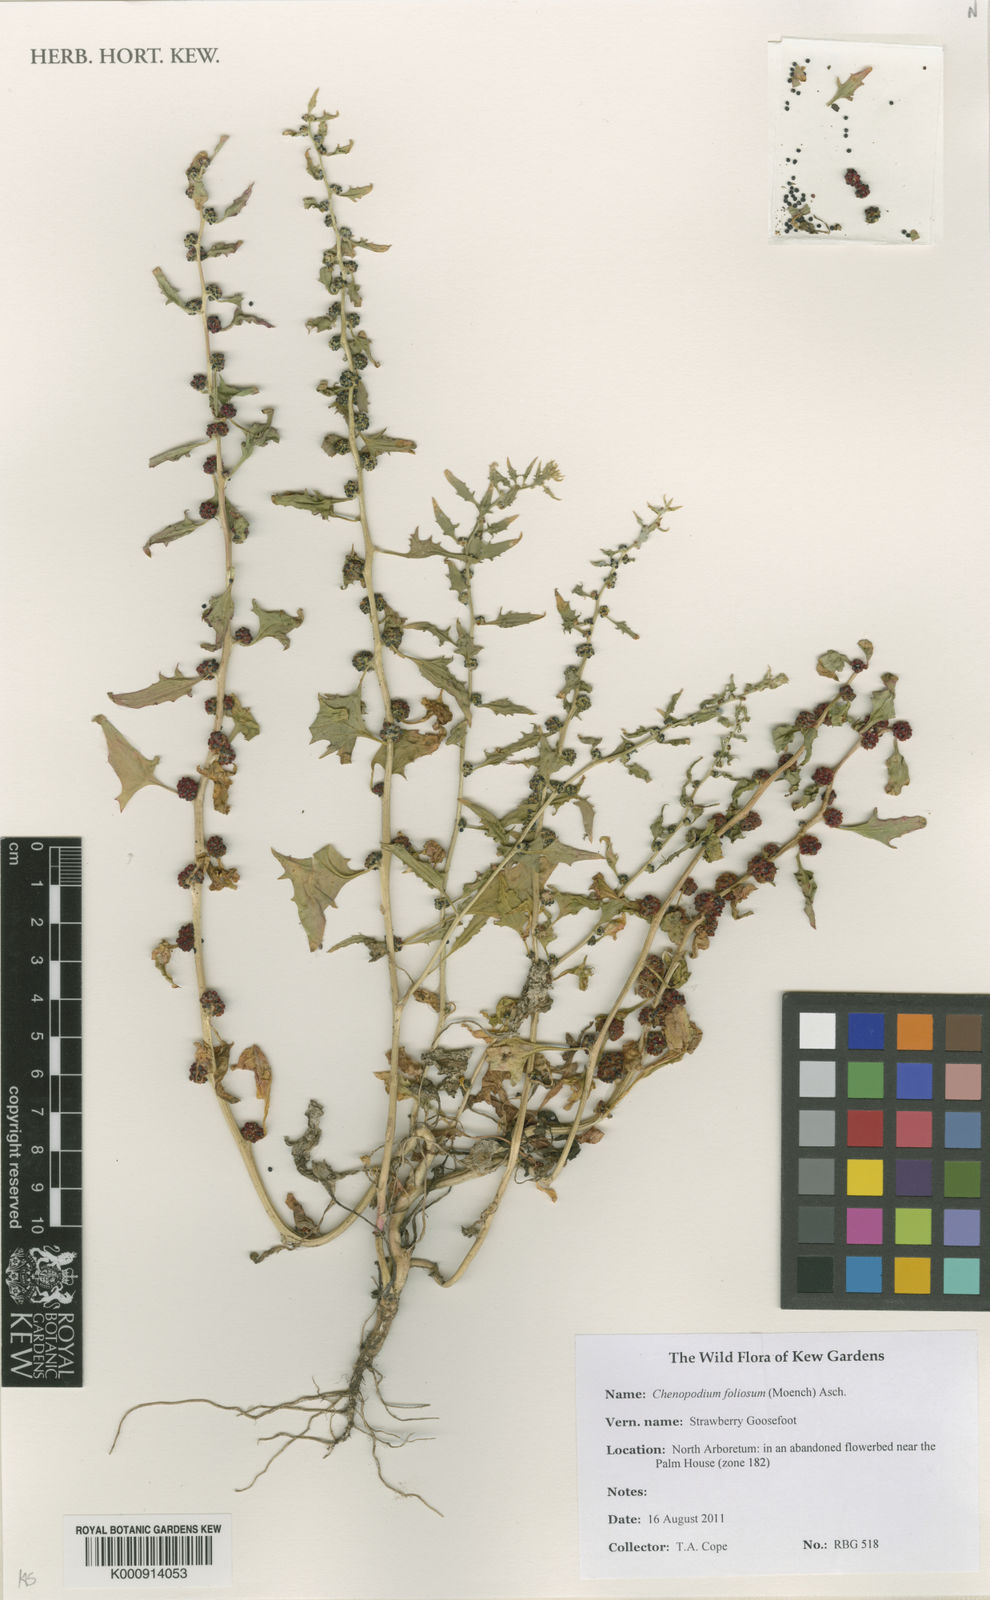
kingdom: Plantae
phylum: Tracheophyta
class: Magnoliopsida
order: Caryophyllales
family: Amaranthaceae
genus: Blitum
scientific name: Blitum virgatum
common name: Strawberry goosefoot
